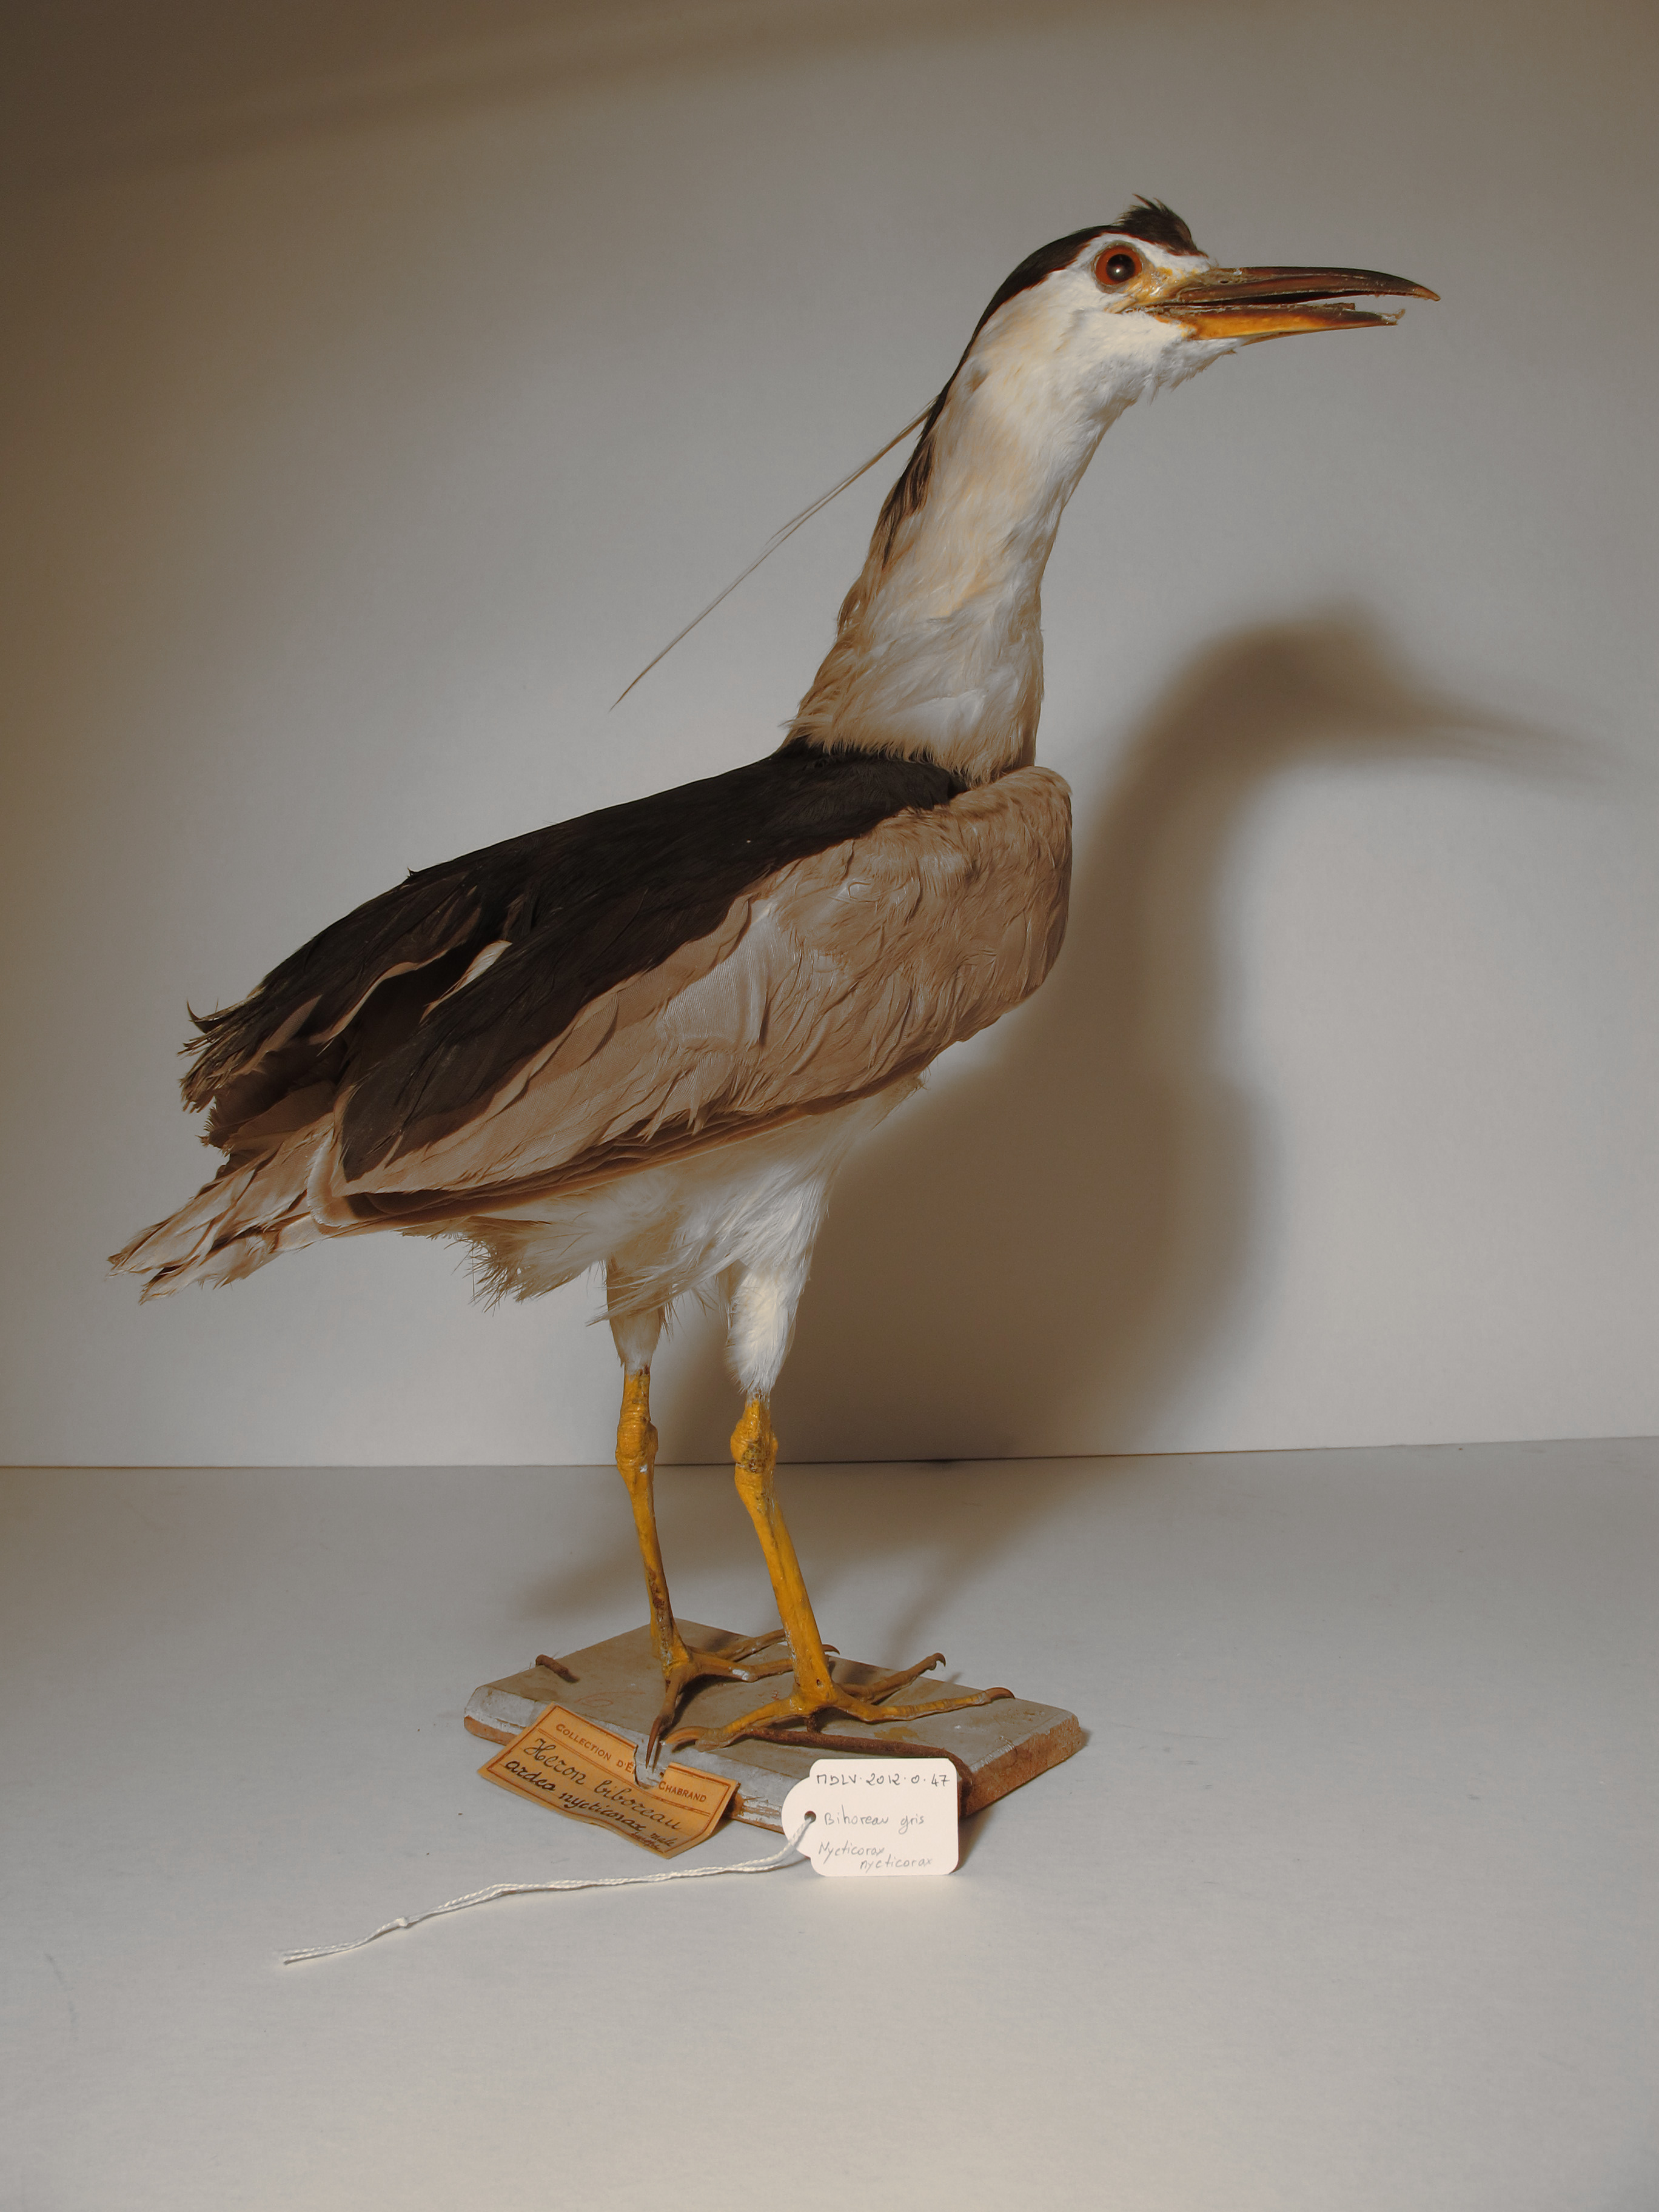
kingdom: Animalia
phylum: Chordata
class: Aves
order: Pelecaniformes
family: Ardeidae
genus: Nycticorax
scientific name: Nycticorax nycticorax
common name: Black-crowned Night-heron
